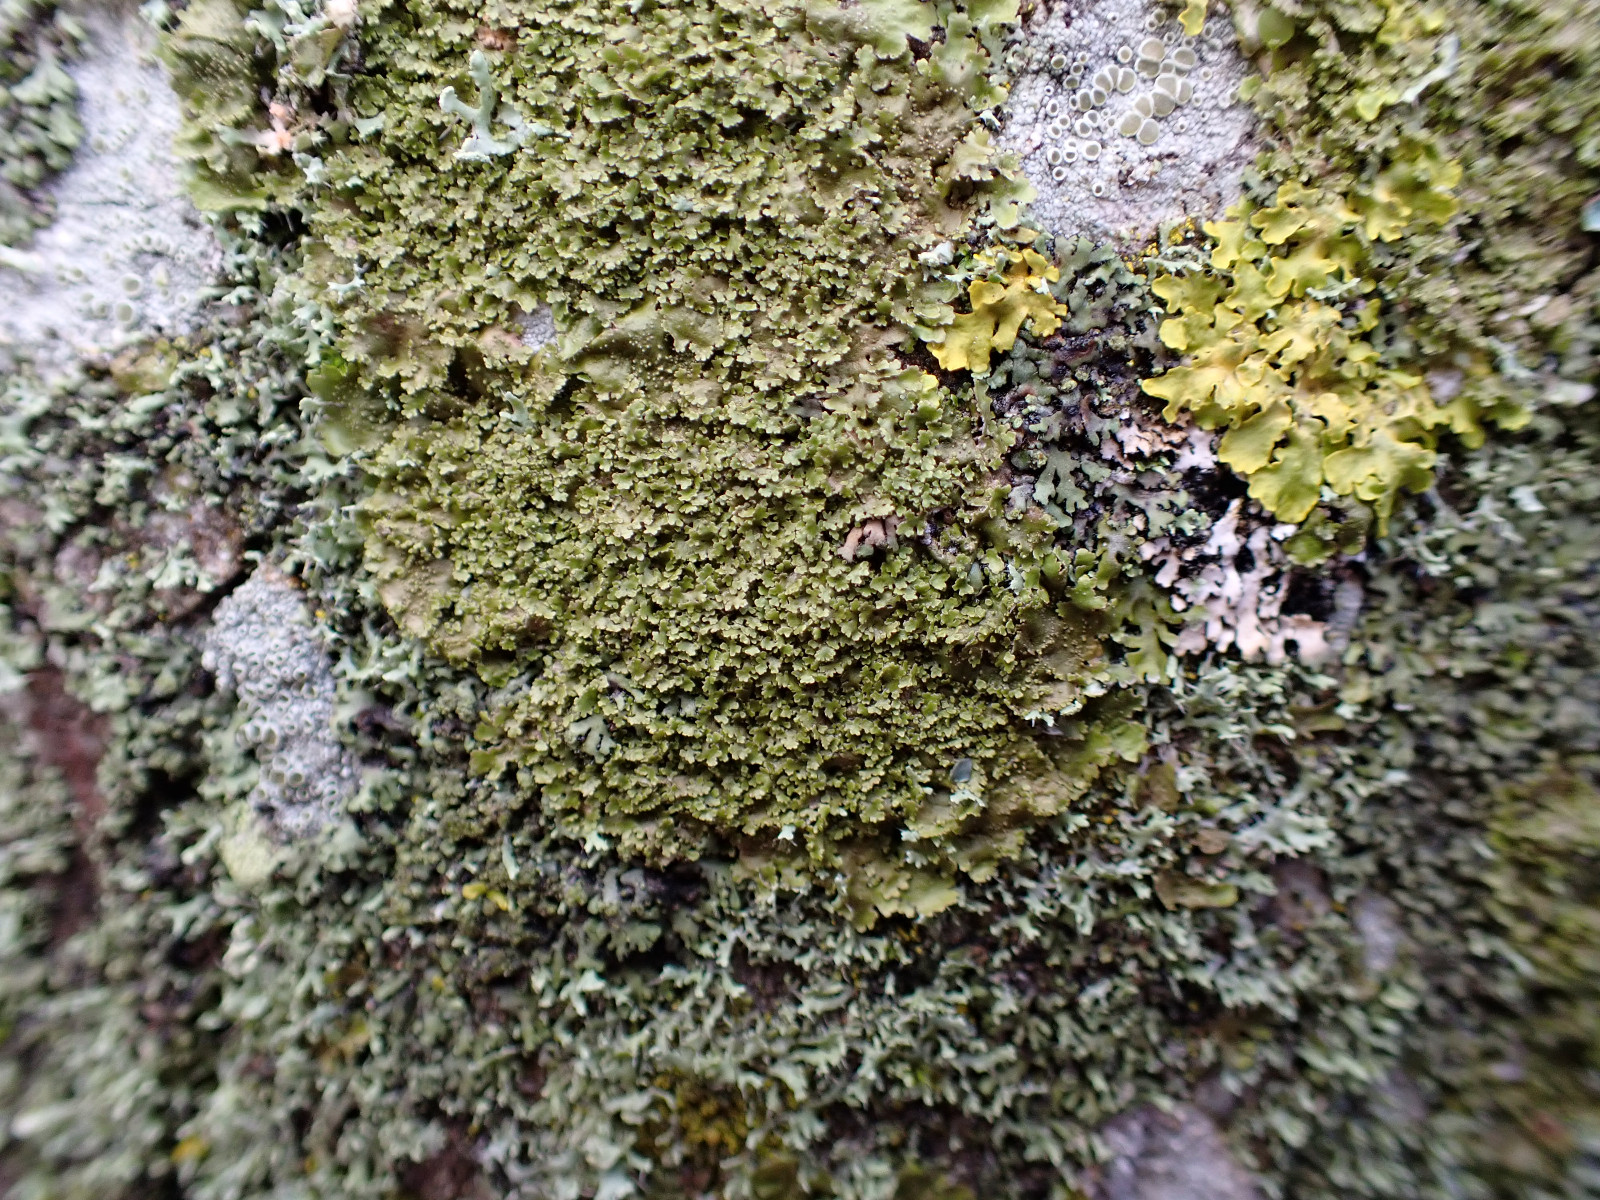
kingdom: Fungi
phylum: Ascomycota
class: Lecanoromycetes
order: Lecanorales
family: Parmeliaceae
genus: Melanohalea
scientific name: Melanohalea laciniatula
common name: småfliget skållav
